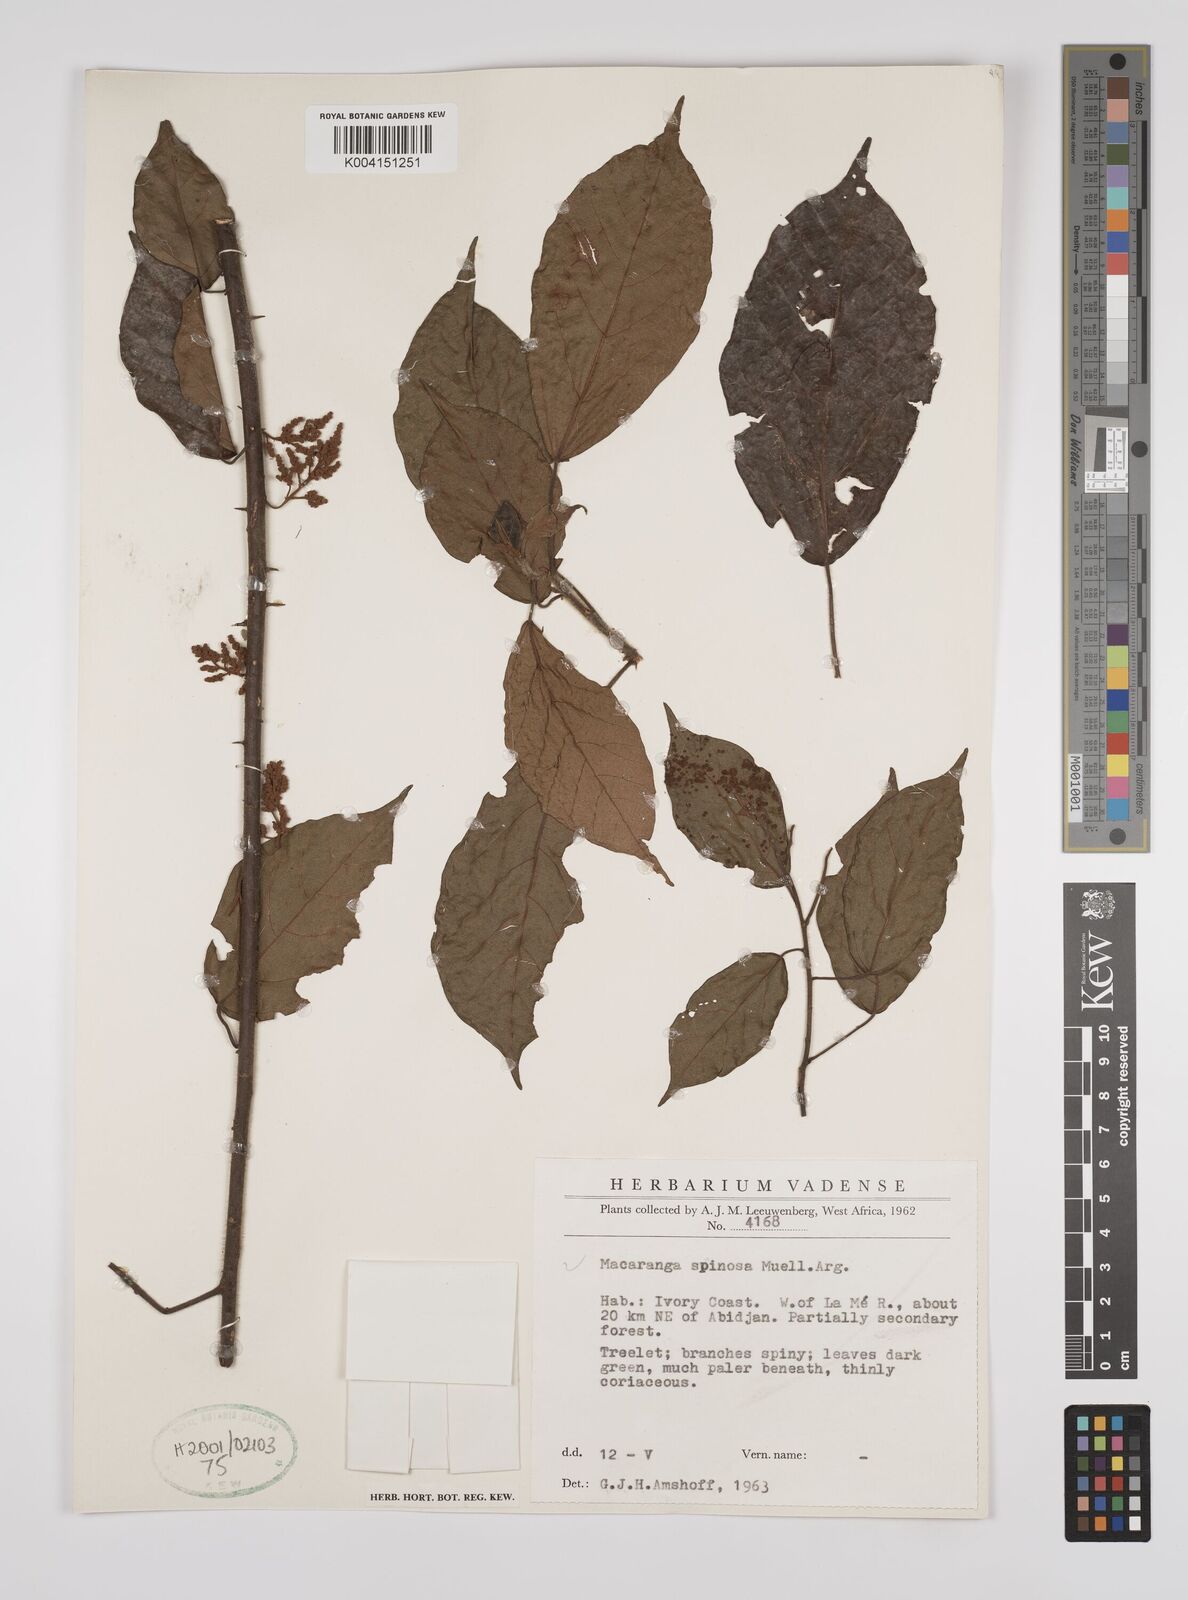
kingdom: Plantae
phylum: Tracheophyta
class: Magnoliopsida
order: Malpighiales
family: Euphorbiaceae
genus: Macaranga
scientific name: Macaranga spinosa
